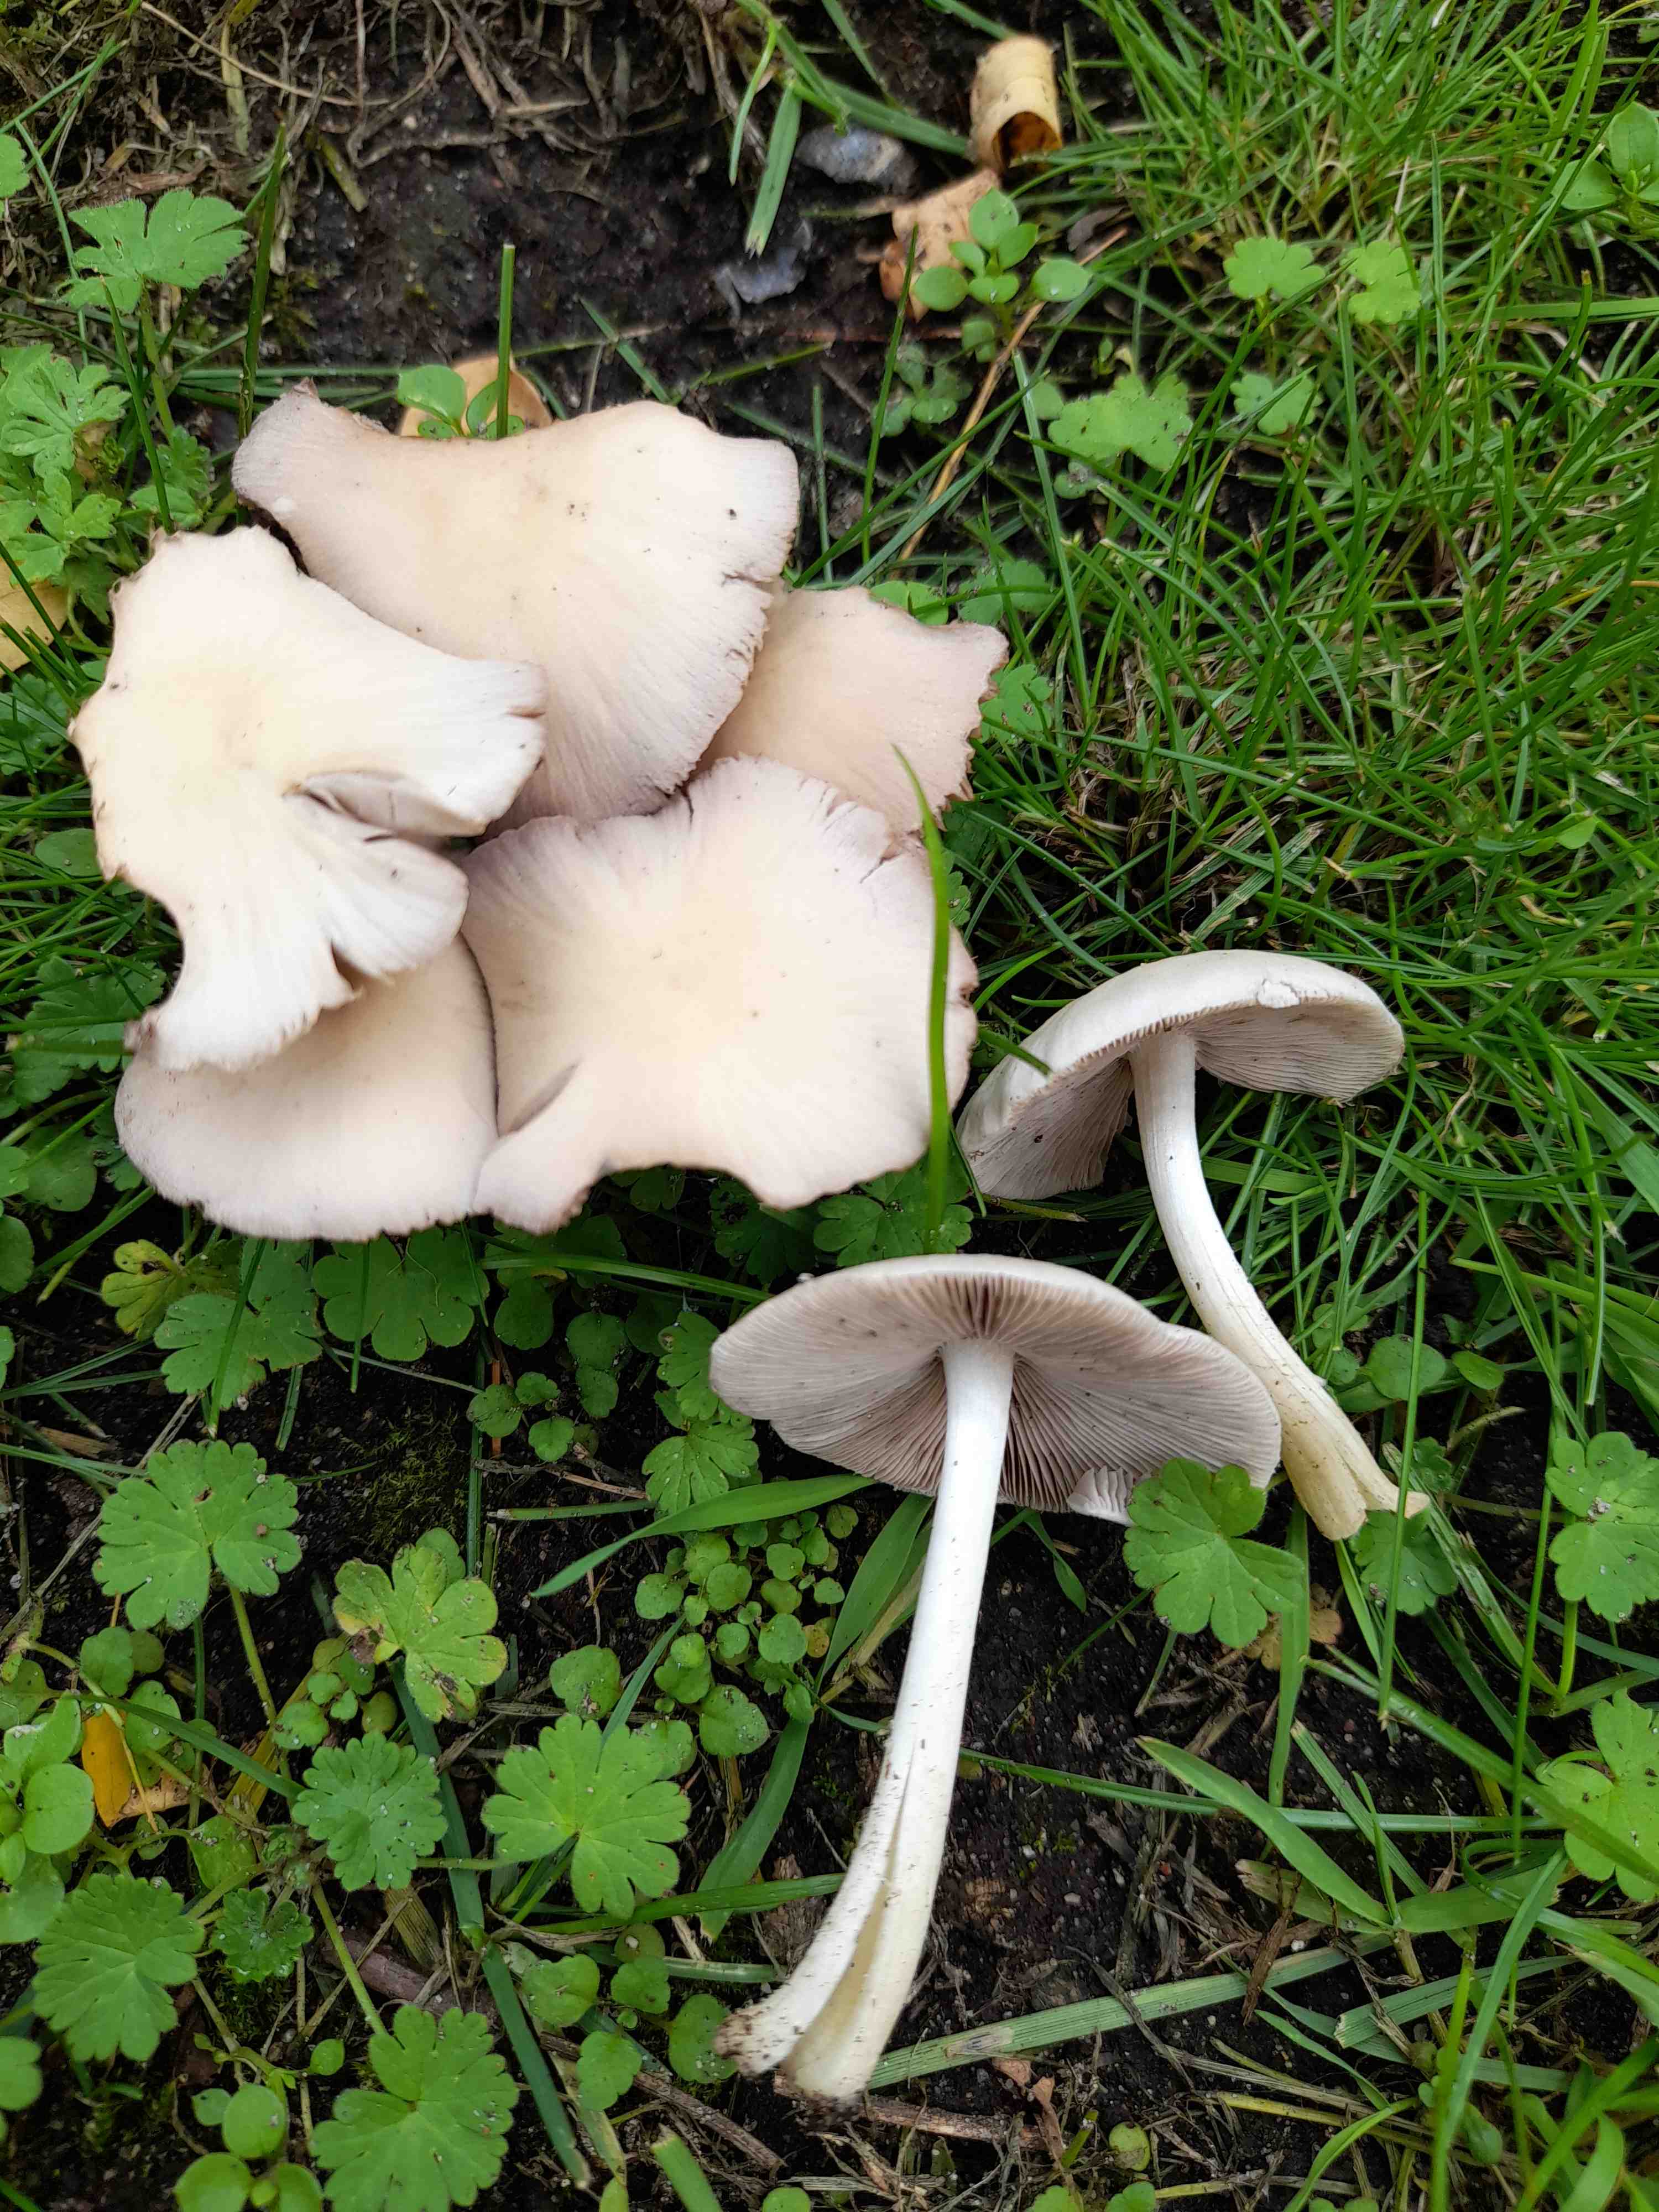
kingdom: Fungi
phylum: Basidiomycota
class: Agaricomycetes
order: Agaricales
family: Psathyrellaceae
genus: Candolleomyces
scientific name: Candolleomyces candolleanus
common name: Candolles mørkhat
